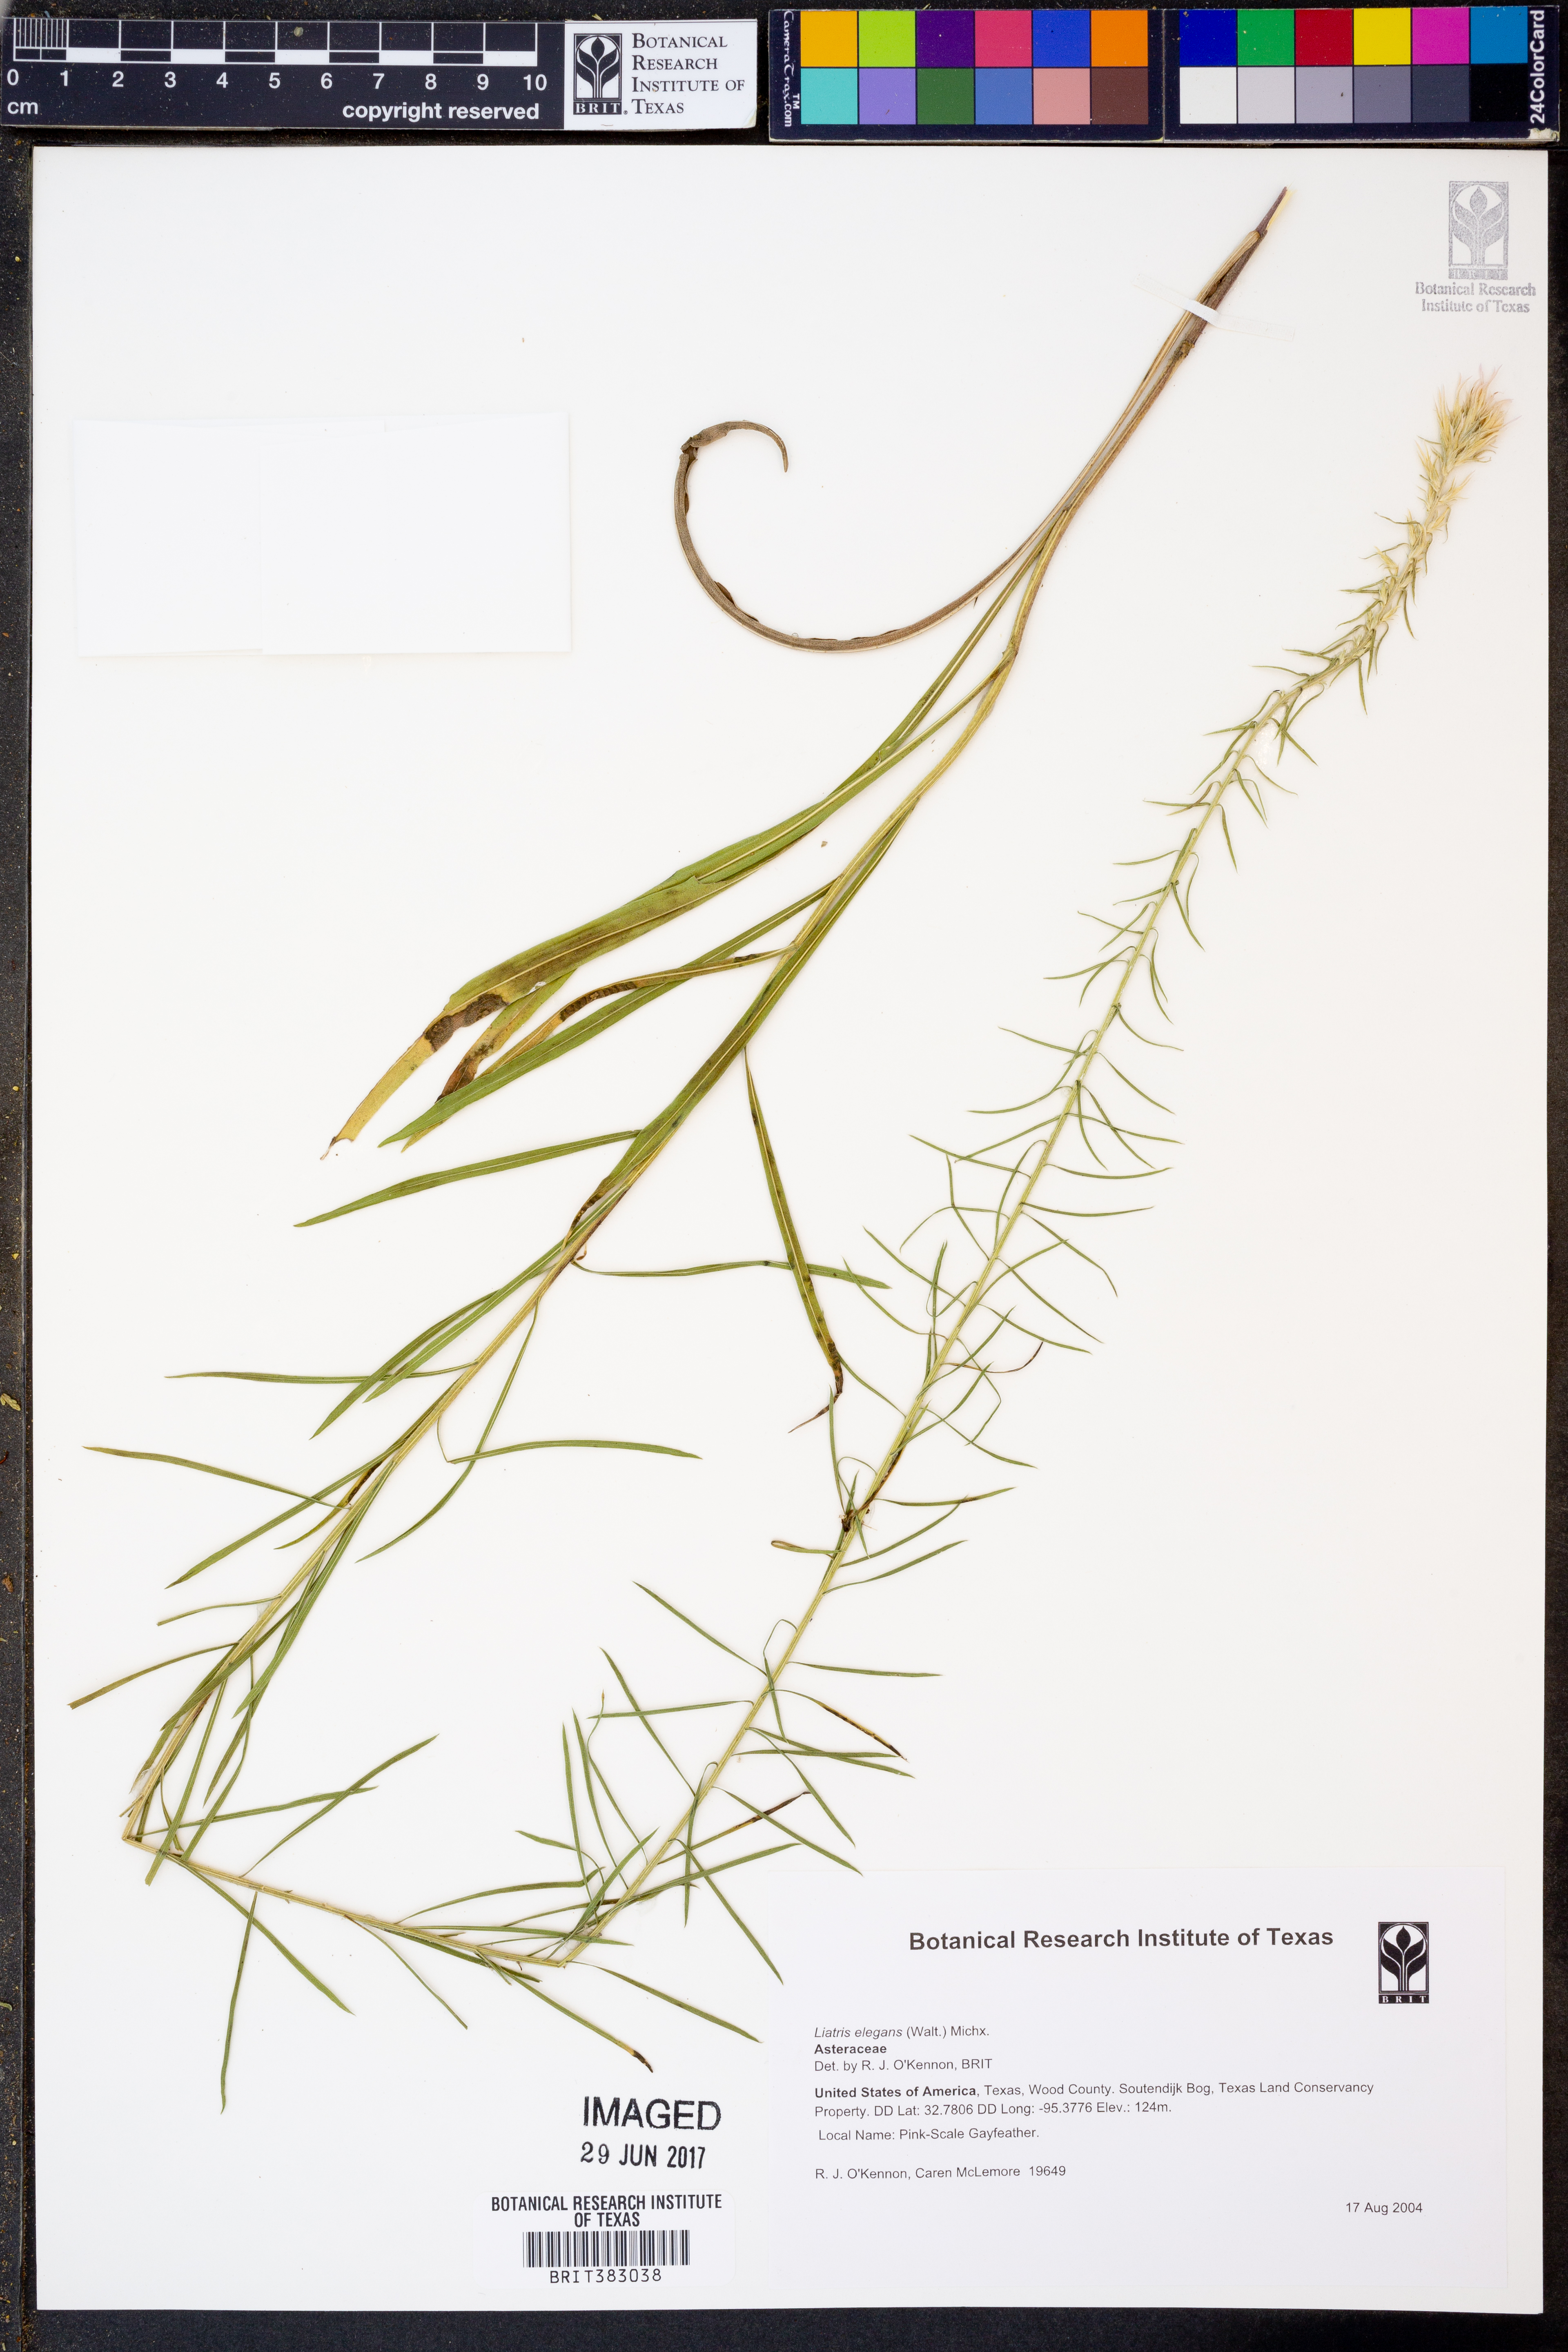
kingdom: Plantae
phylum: Tracheophyta
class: Magnoliopsida
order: Asterales
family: Asteraceae
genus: Liatris
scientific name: Liatris elegans
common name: Pinkscale gayfeather
